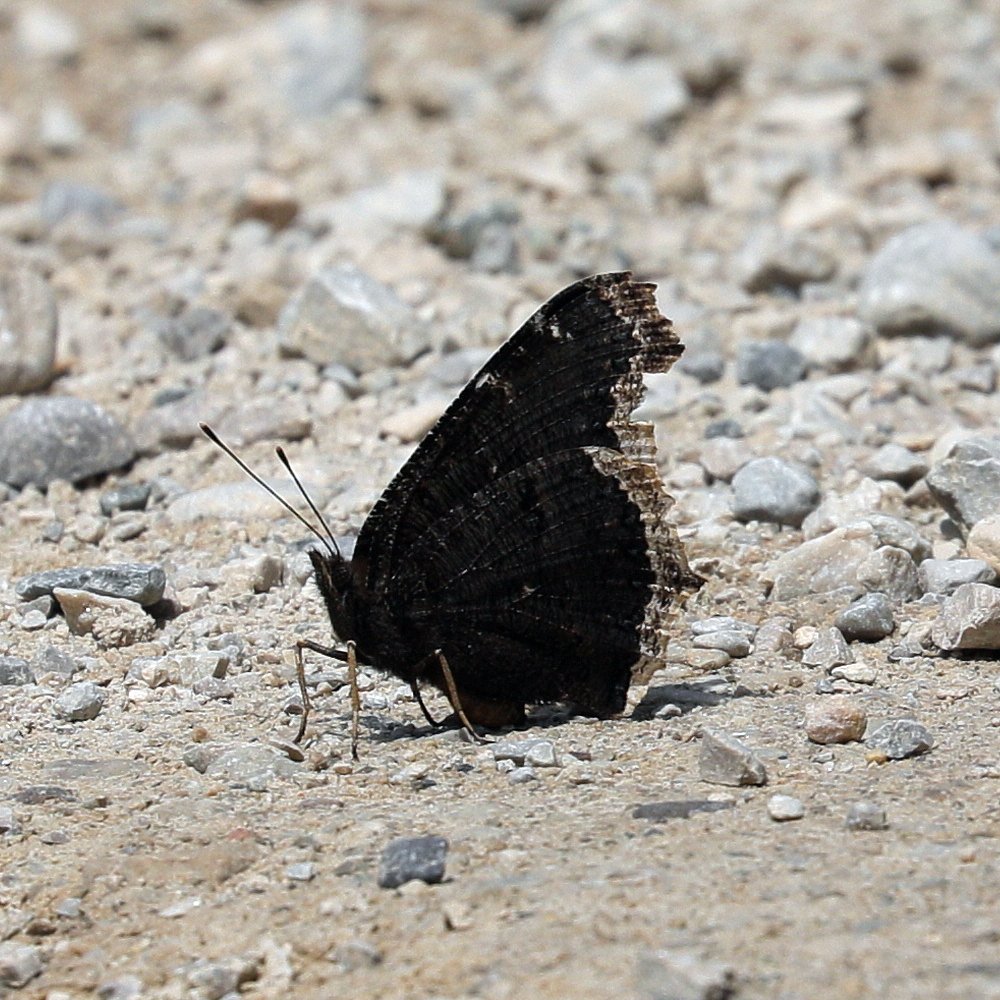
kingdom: Animalia
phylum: Arthropoda
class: Insecta
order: Lepidoptera
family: Nymphalidae
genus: Nymphalis
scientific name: Nymphalis antiopa
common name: Mourning Cloak
